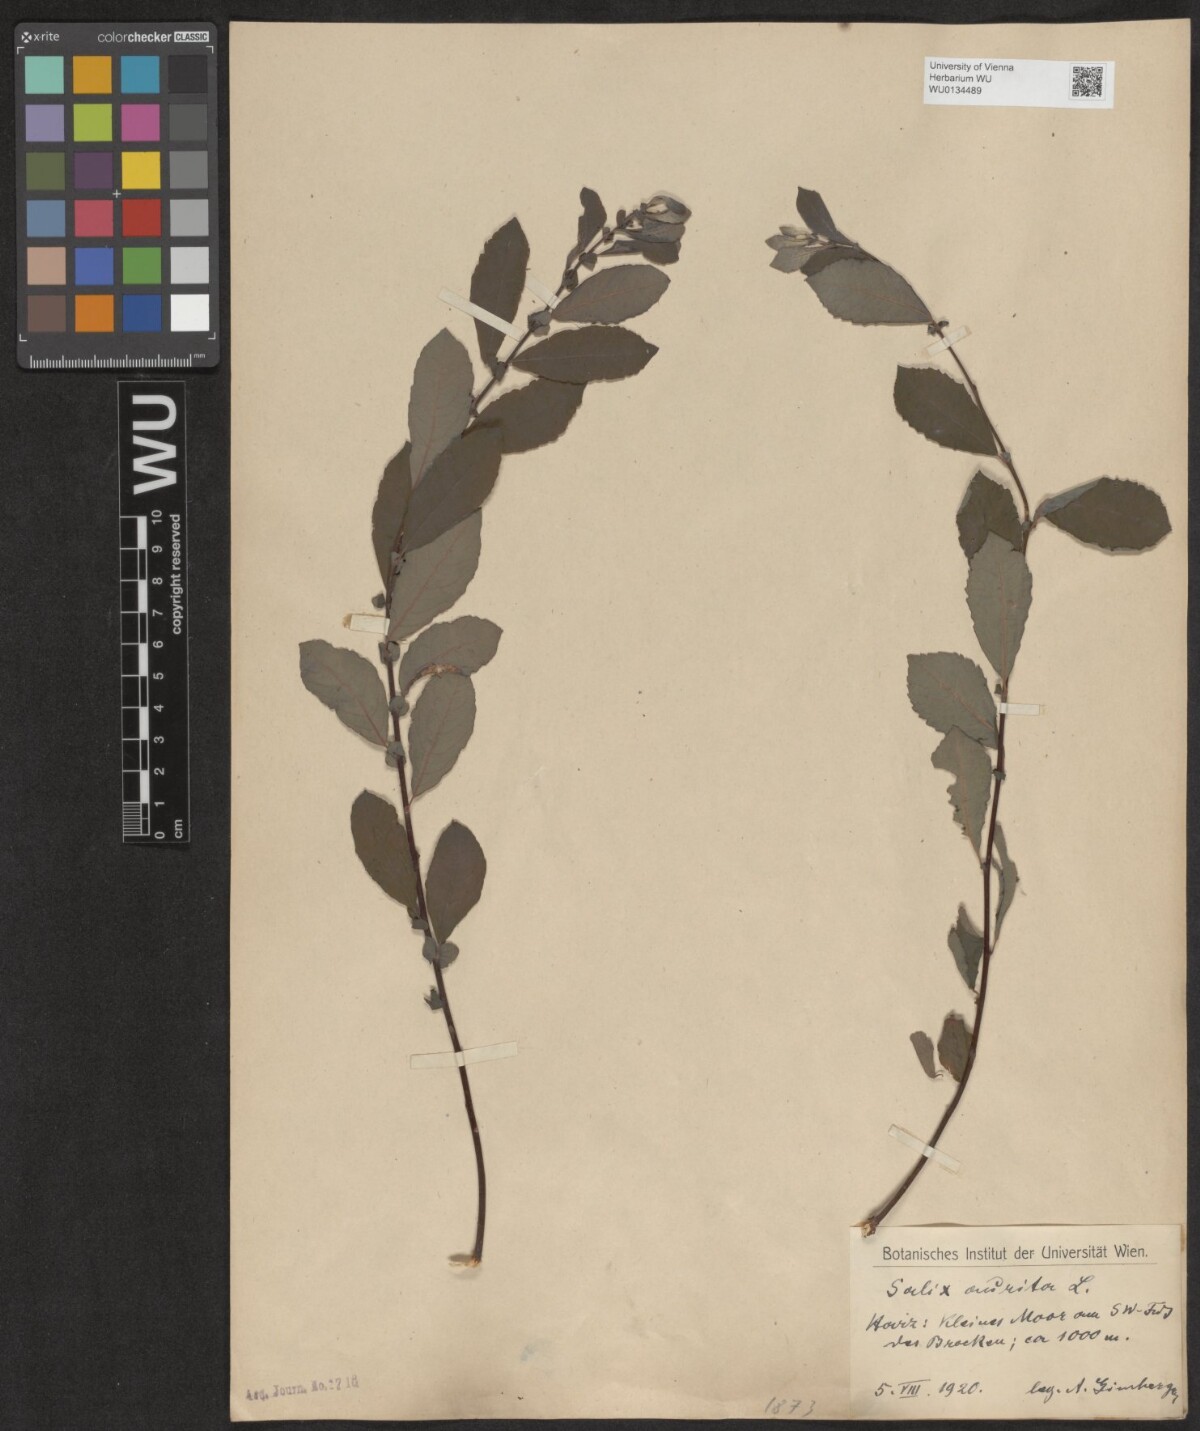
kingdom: Plantae
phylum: Tracheophyta
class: Magnoliopsida
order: Malpighiales
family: Salicaceae
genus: Salix
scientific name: Salix aurita
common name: Eared willow
